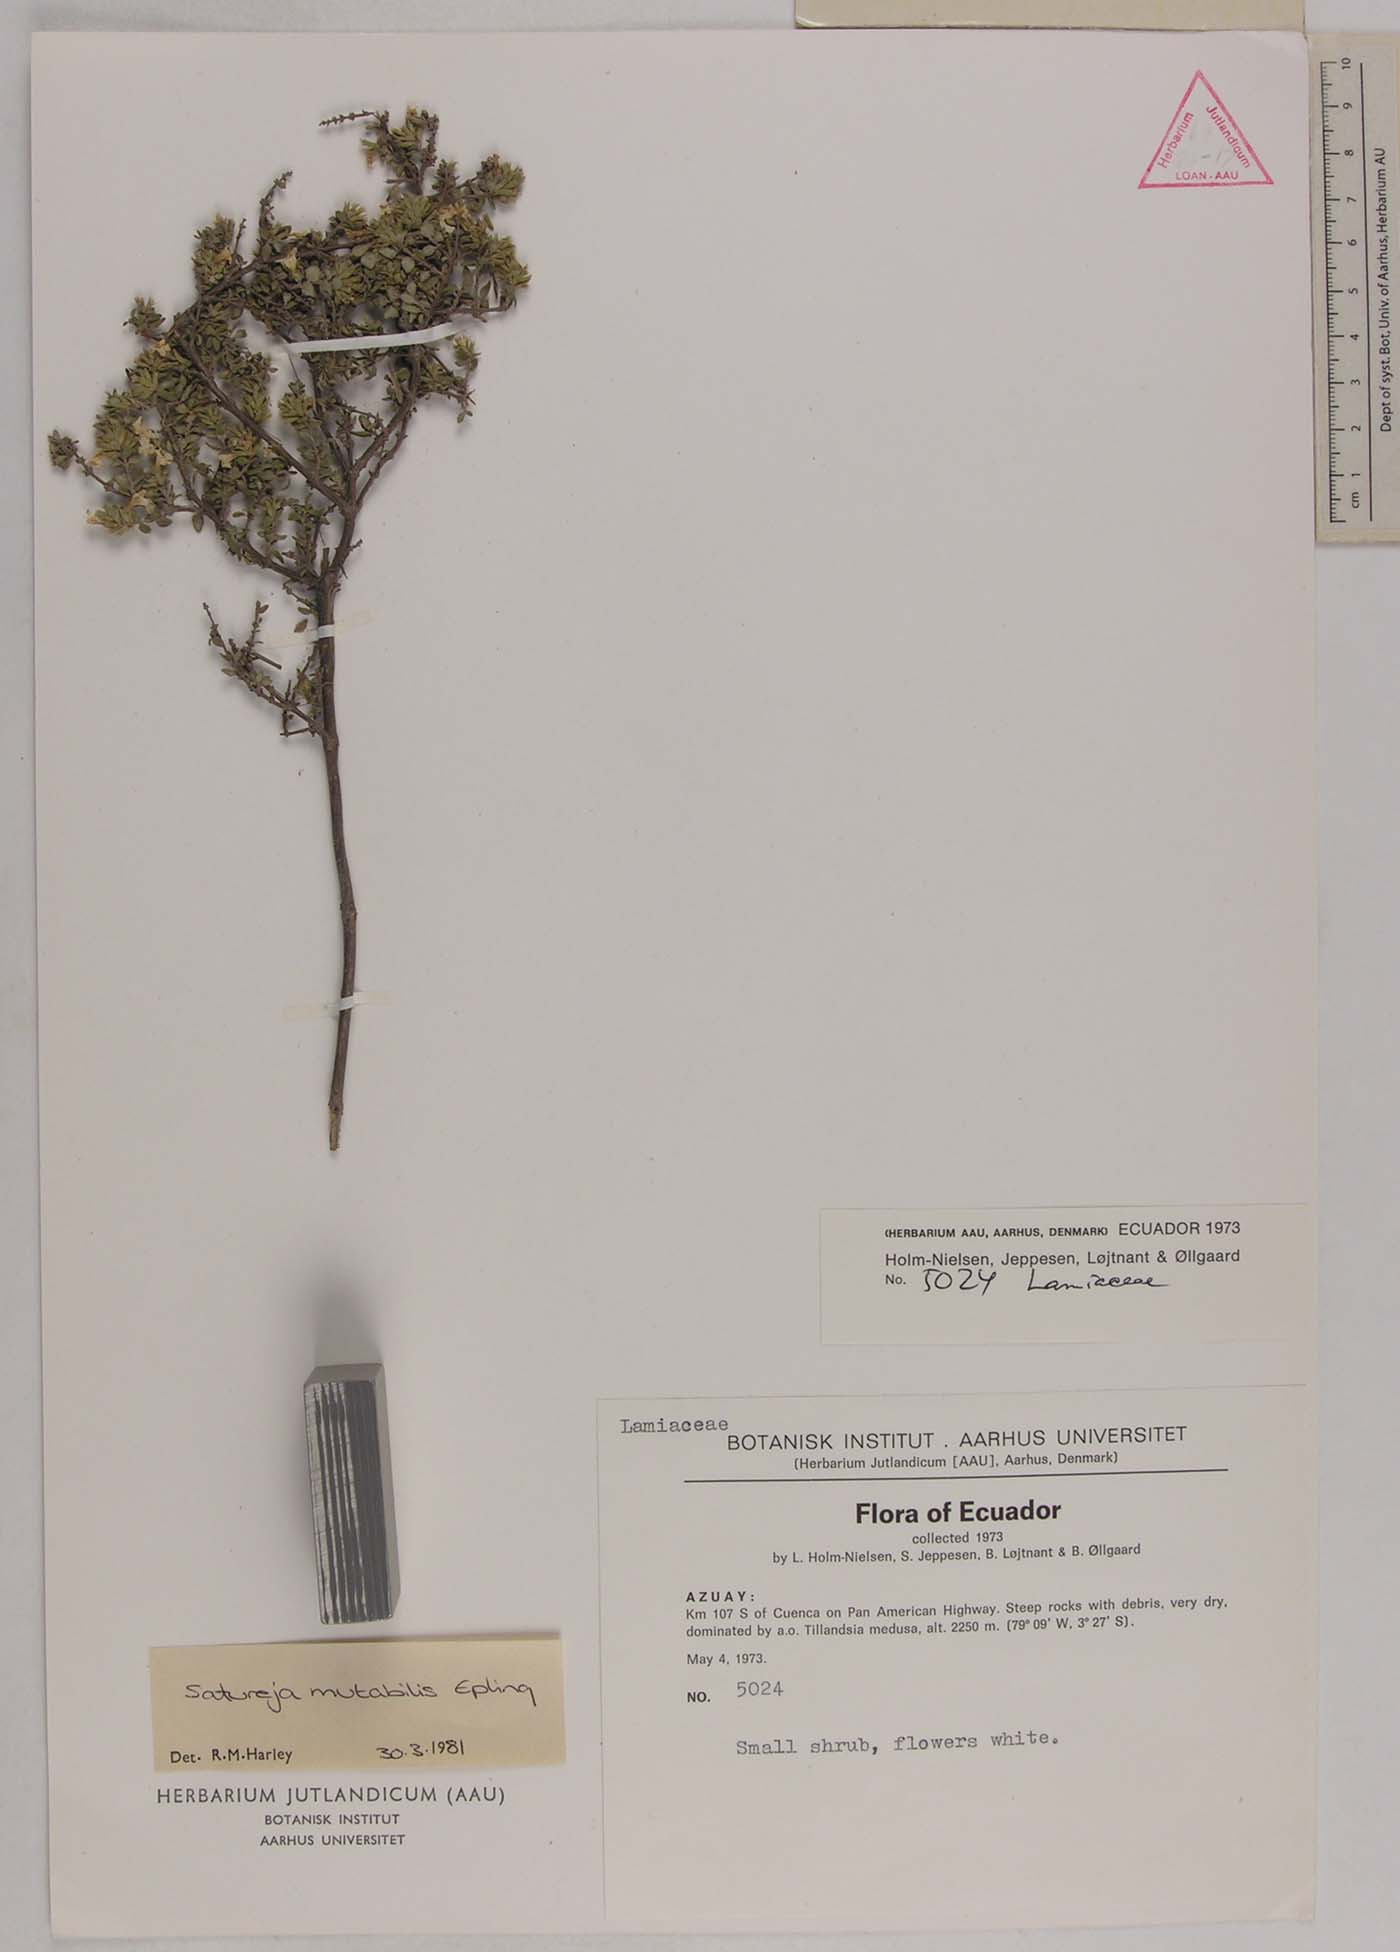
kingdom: Plantae
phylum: Tracheophyta
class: Magnoliopsida
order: Lamiales
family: Lamiaceae
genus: Clinopodium
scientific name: Clinopodium mutabile
